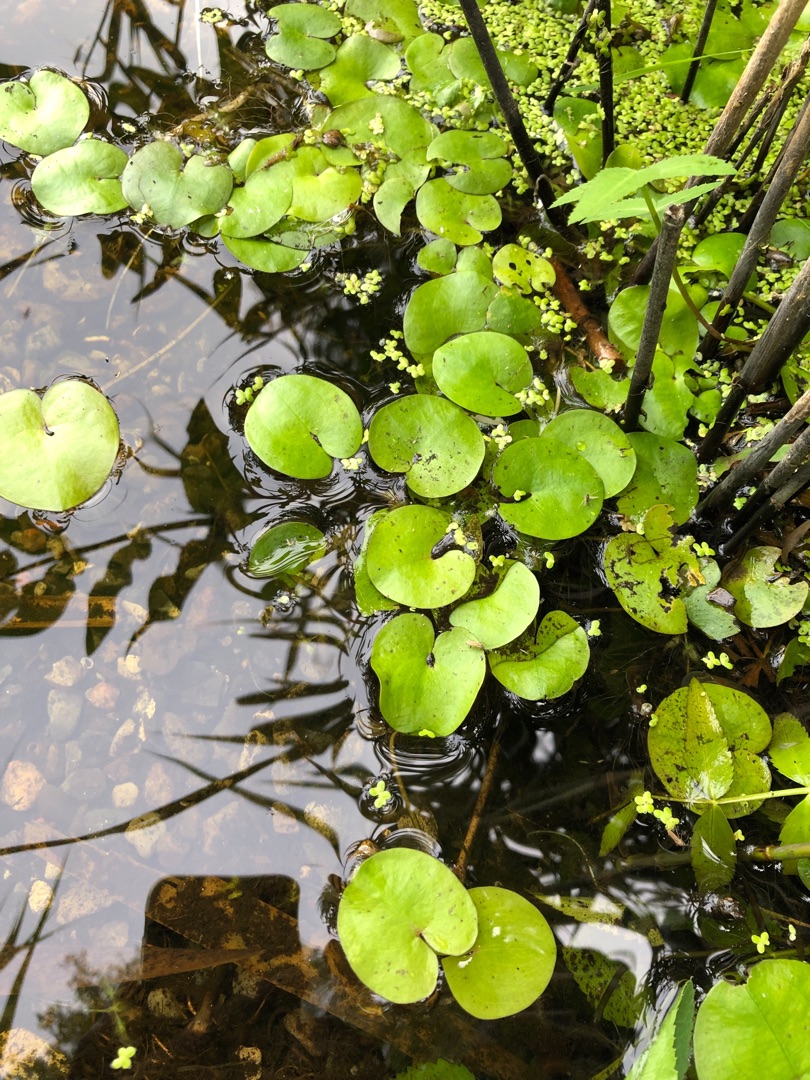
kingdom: Plantae
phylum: Tracheophyta
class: Liliopsida
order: Alismatales
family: Hydrocharitaceae
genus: Hydrocharis
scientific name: Hydrocharis morsus-ranae
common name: Frøbid
